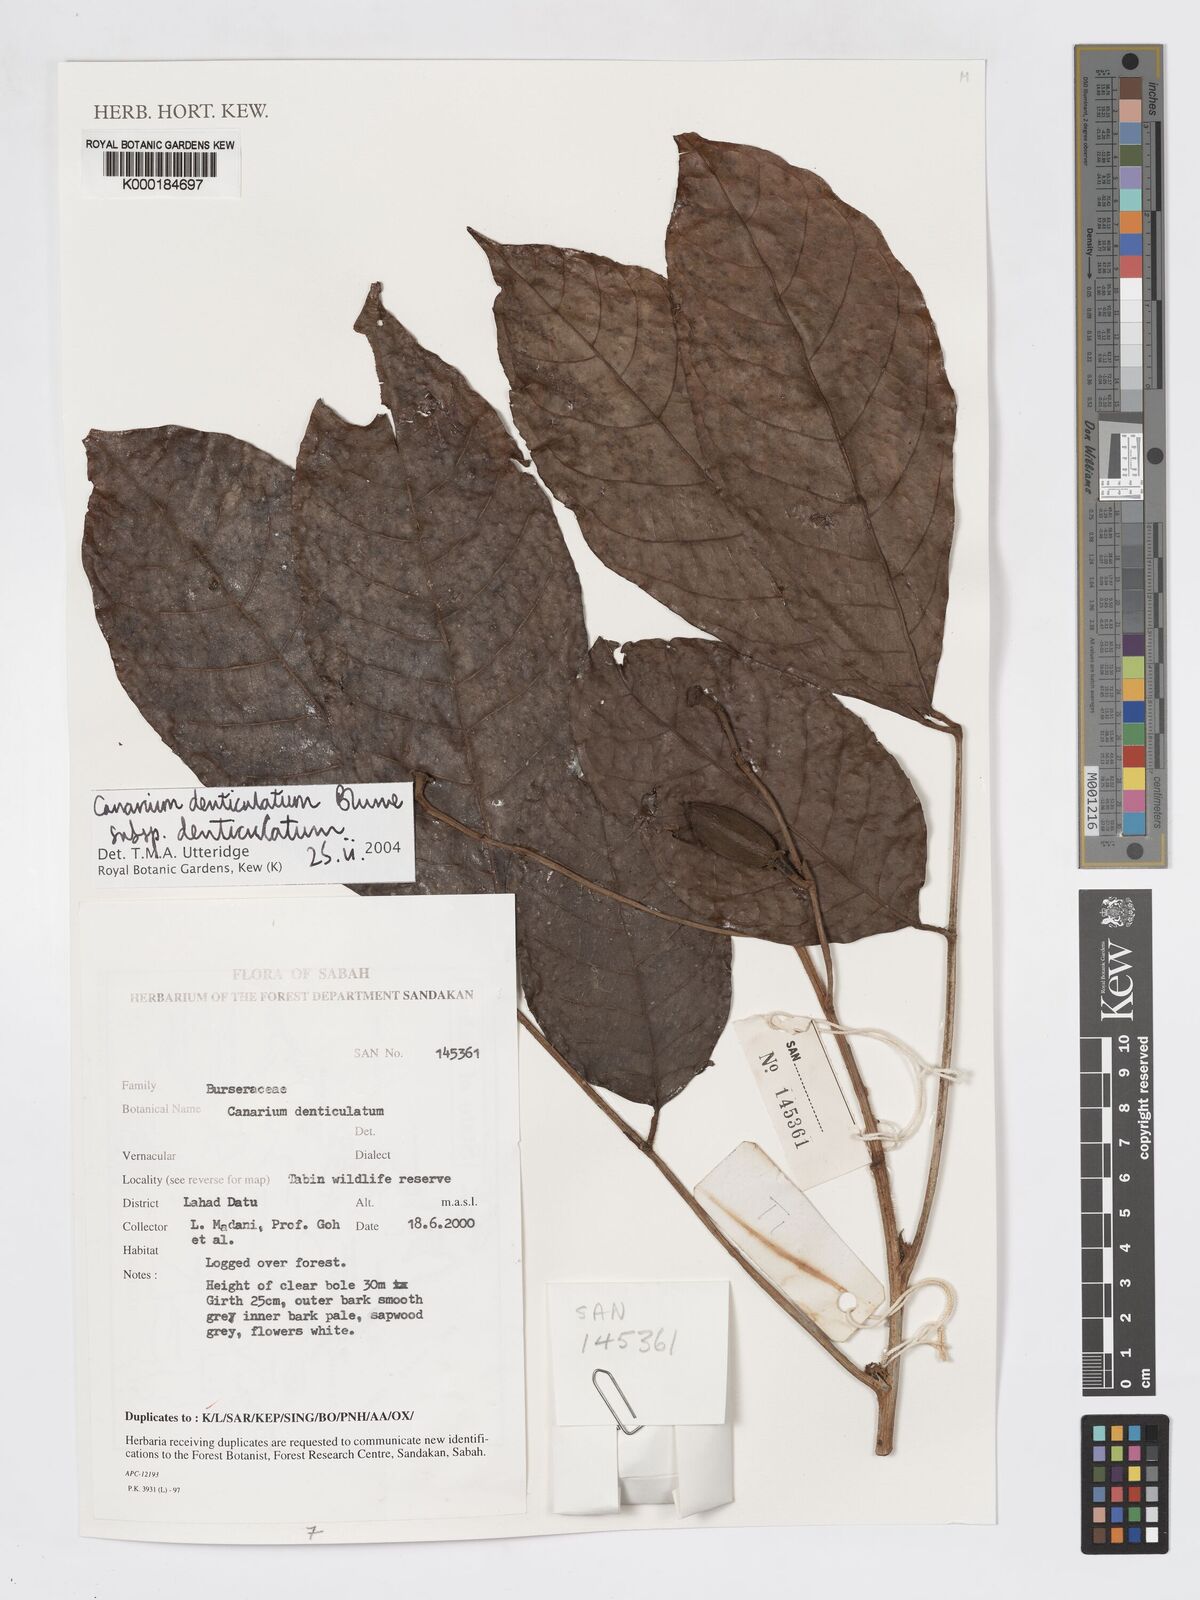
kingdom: Plantae
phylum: Tracheophyta
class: Magnoliopsida
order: Sapindales
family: Burseraceae
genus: Canarium
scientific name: Canarium denticulatum
